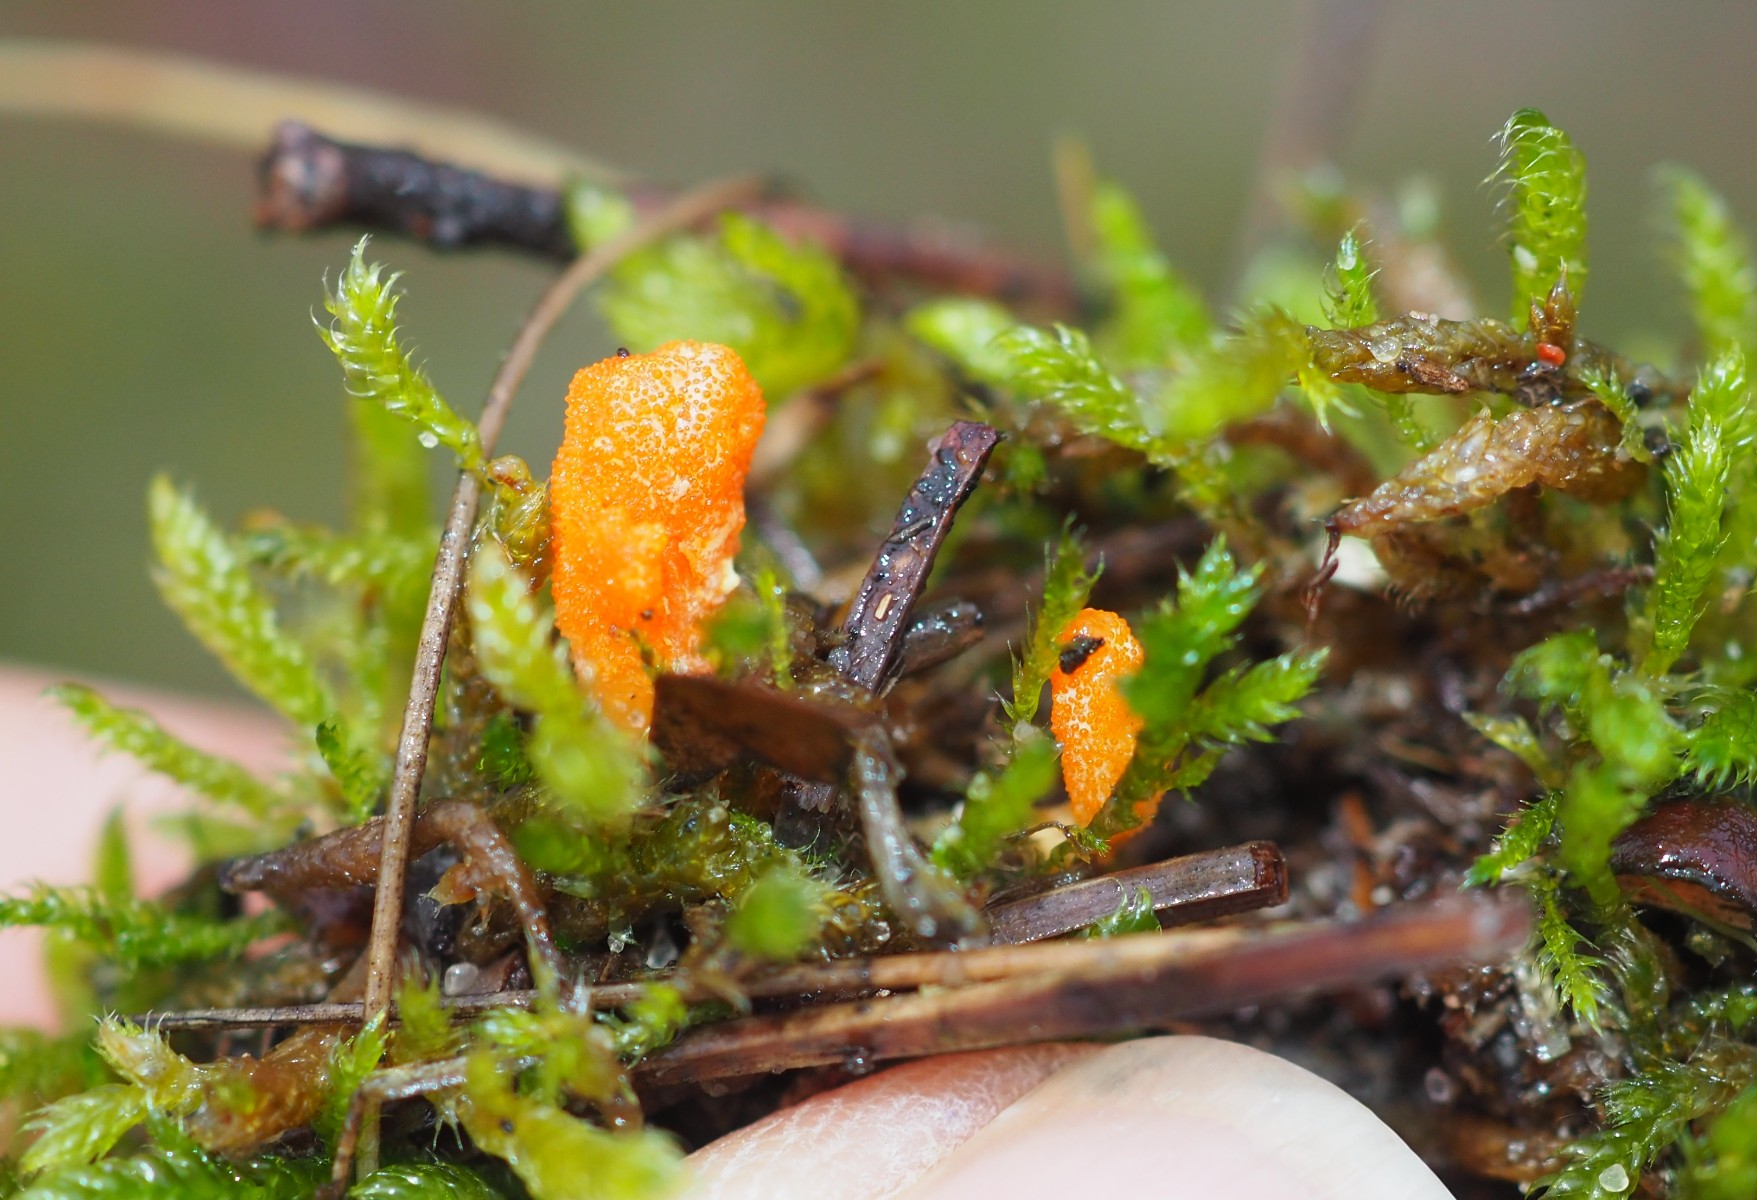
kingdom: Fungi
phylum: Ascomycota
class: Sordariomycetes
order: Hypocreales
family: Cordycipitaceae
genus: Cordyceps
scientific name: Cordyceps militaris
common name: puppe-snyltekølle
